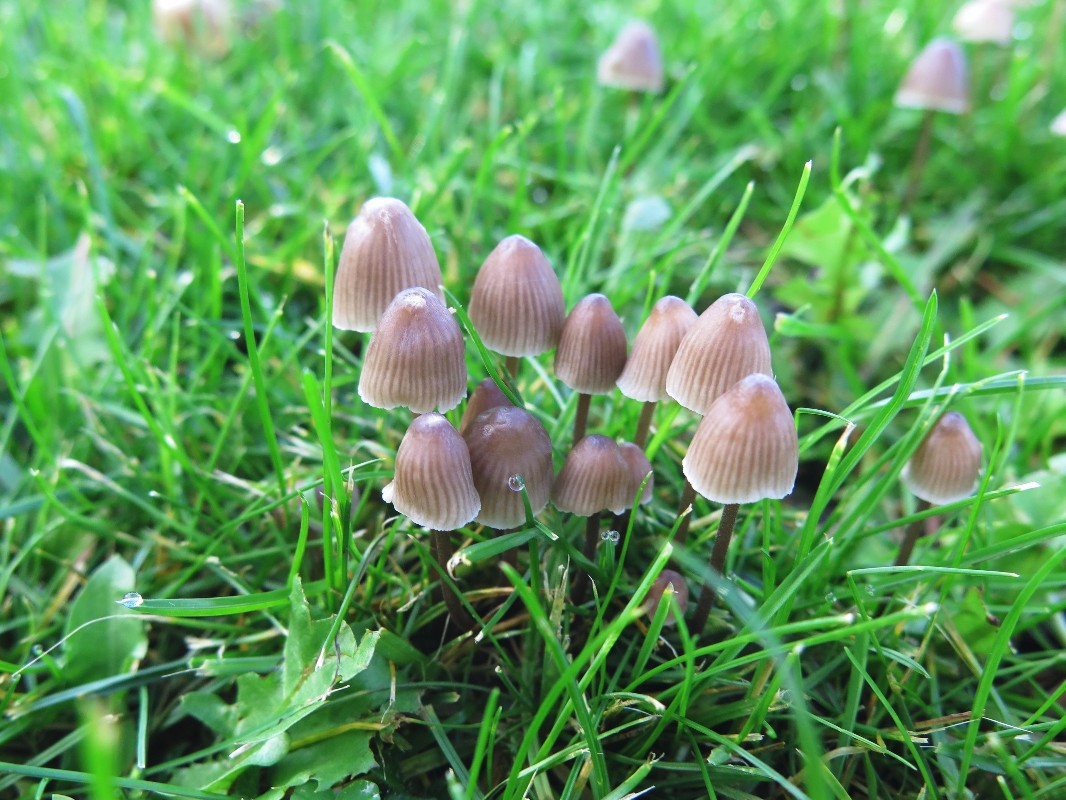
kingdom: Fungi
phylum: Basidiomycota
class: Agaricomycetes
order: Agaricales
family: Mycenaceae
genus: Mycena
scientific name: Mycena leptocephala
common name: klor-huesvamp
